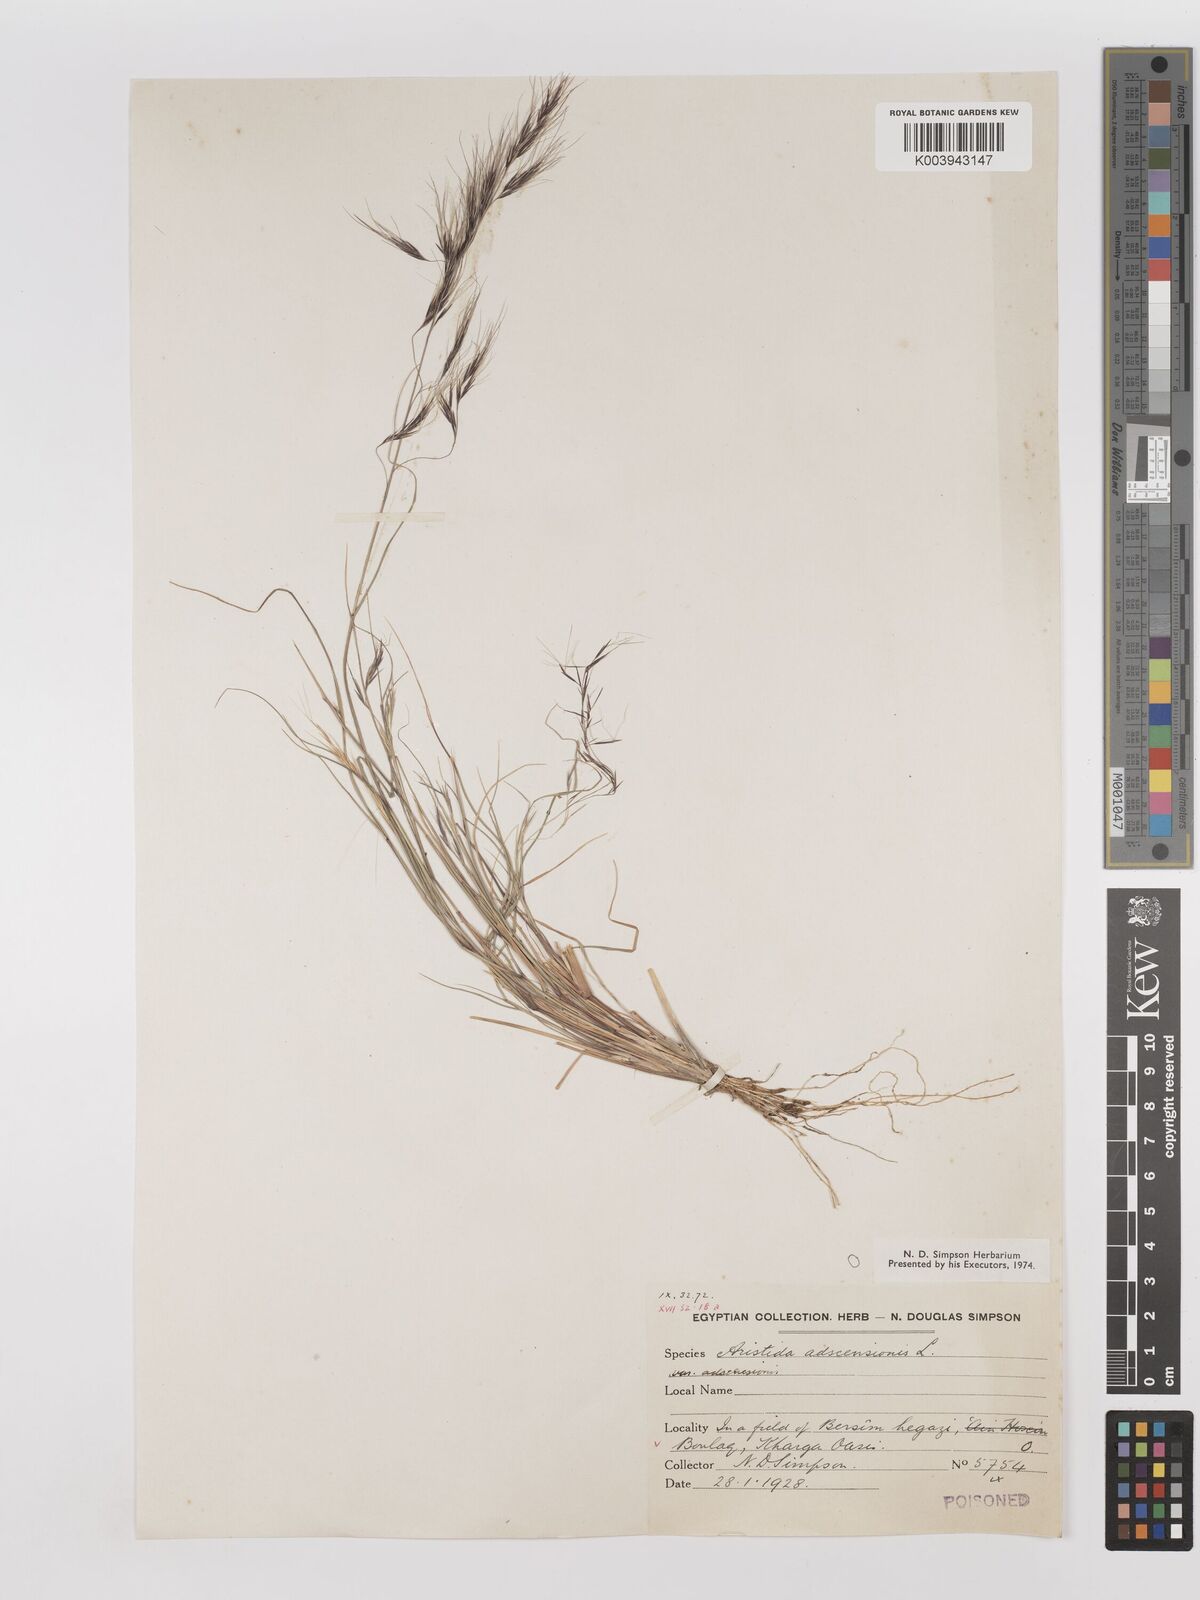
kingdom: Plantae
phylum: Tracheophyta
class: Liliopsida
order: Poales
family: Poaceae
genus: Aristida
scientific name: Aristida adscensionis
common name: Sixweeks threeawn
